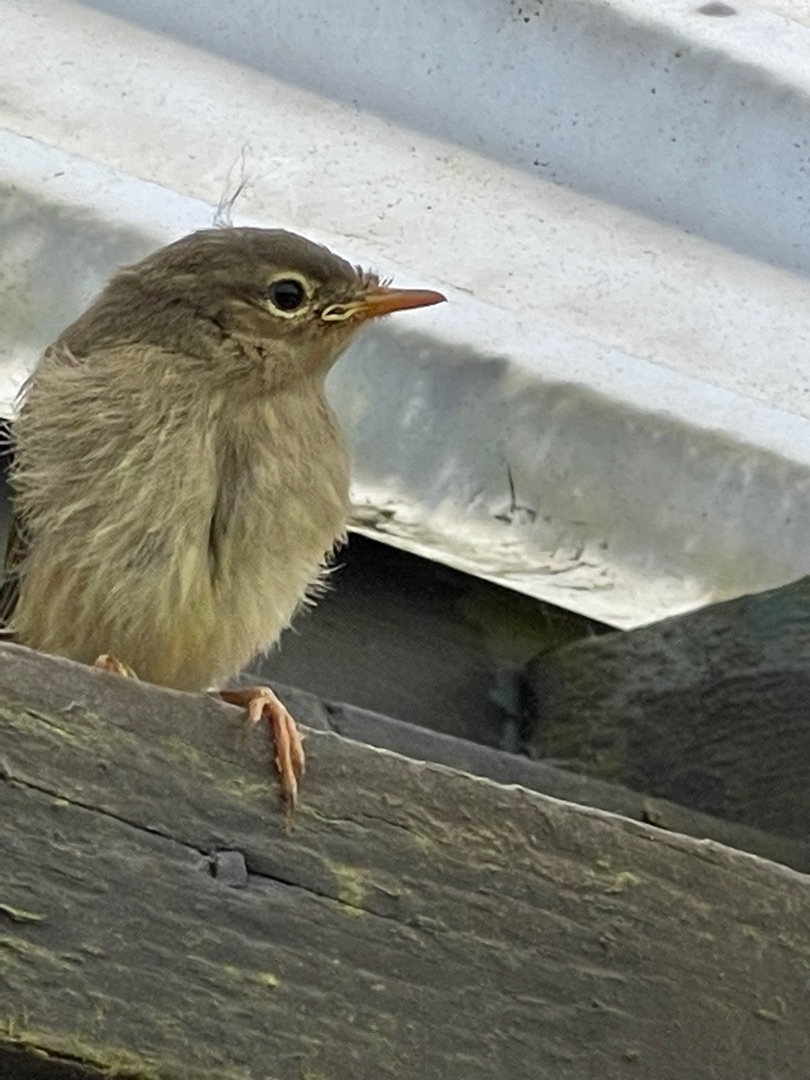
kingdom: Animalia
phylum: Chordata
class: Aves
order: Passeriformes
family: Phylloscopidae
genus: Phylloscopus
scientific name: Phylloscopus trochilus
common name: Løvsanger
